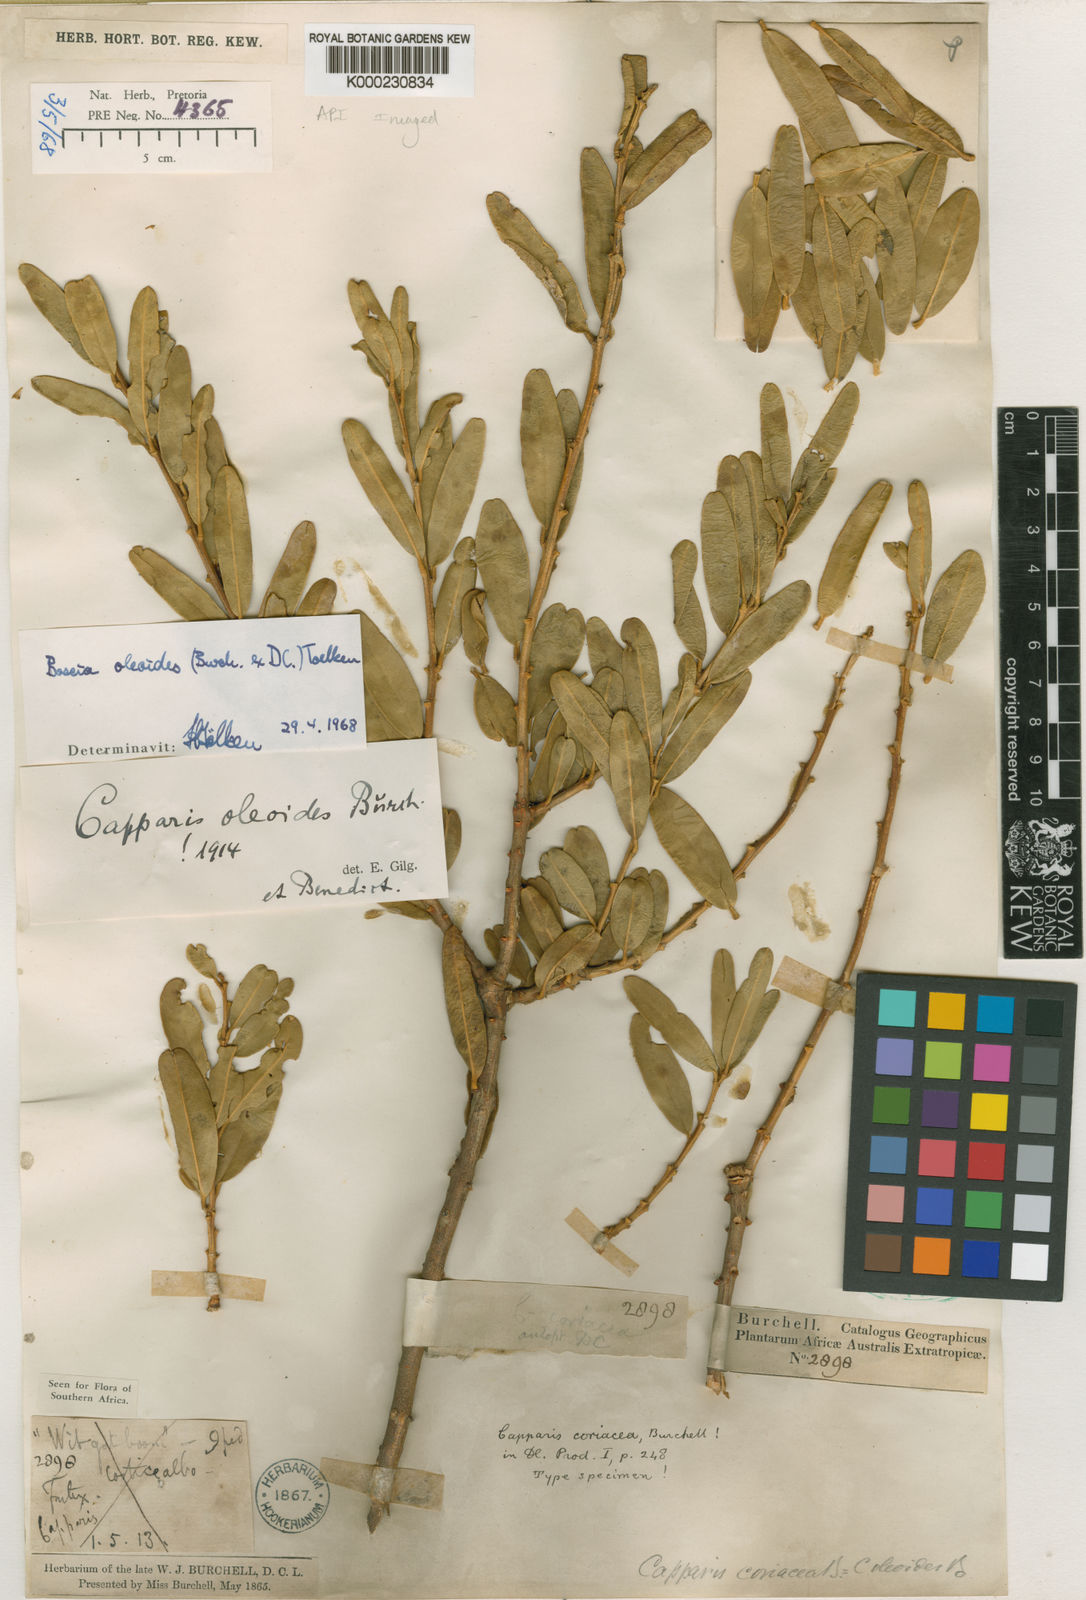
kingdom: Plantae
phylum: Tracheophyta
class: Magnoliopsida
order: Brassicales
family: Capparaceae
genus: Boscia
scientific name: Boscia oleoides
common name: Karoo shepherd tree
